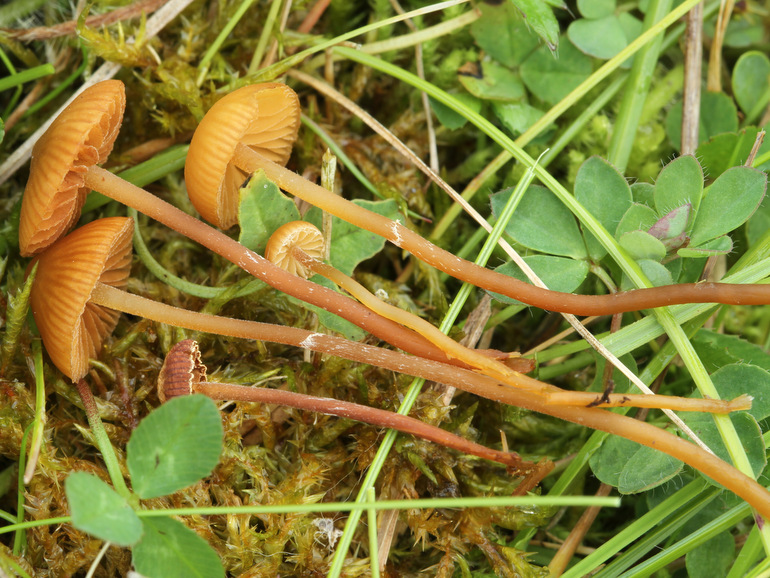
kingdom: Fungi
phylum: Basidiomycota
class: Agaricomycetes
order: Agaricales
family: Hymenogastraceae
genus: Galerina
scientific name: Galerina jaapii
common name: hvidbæltet hjelmhat
